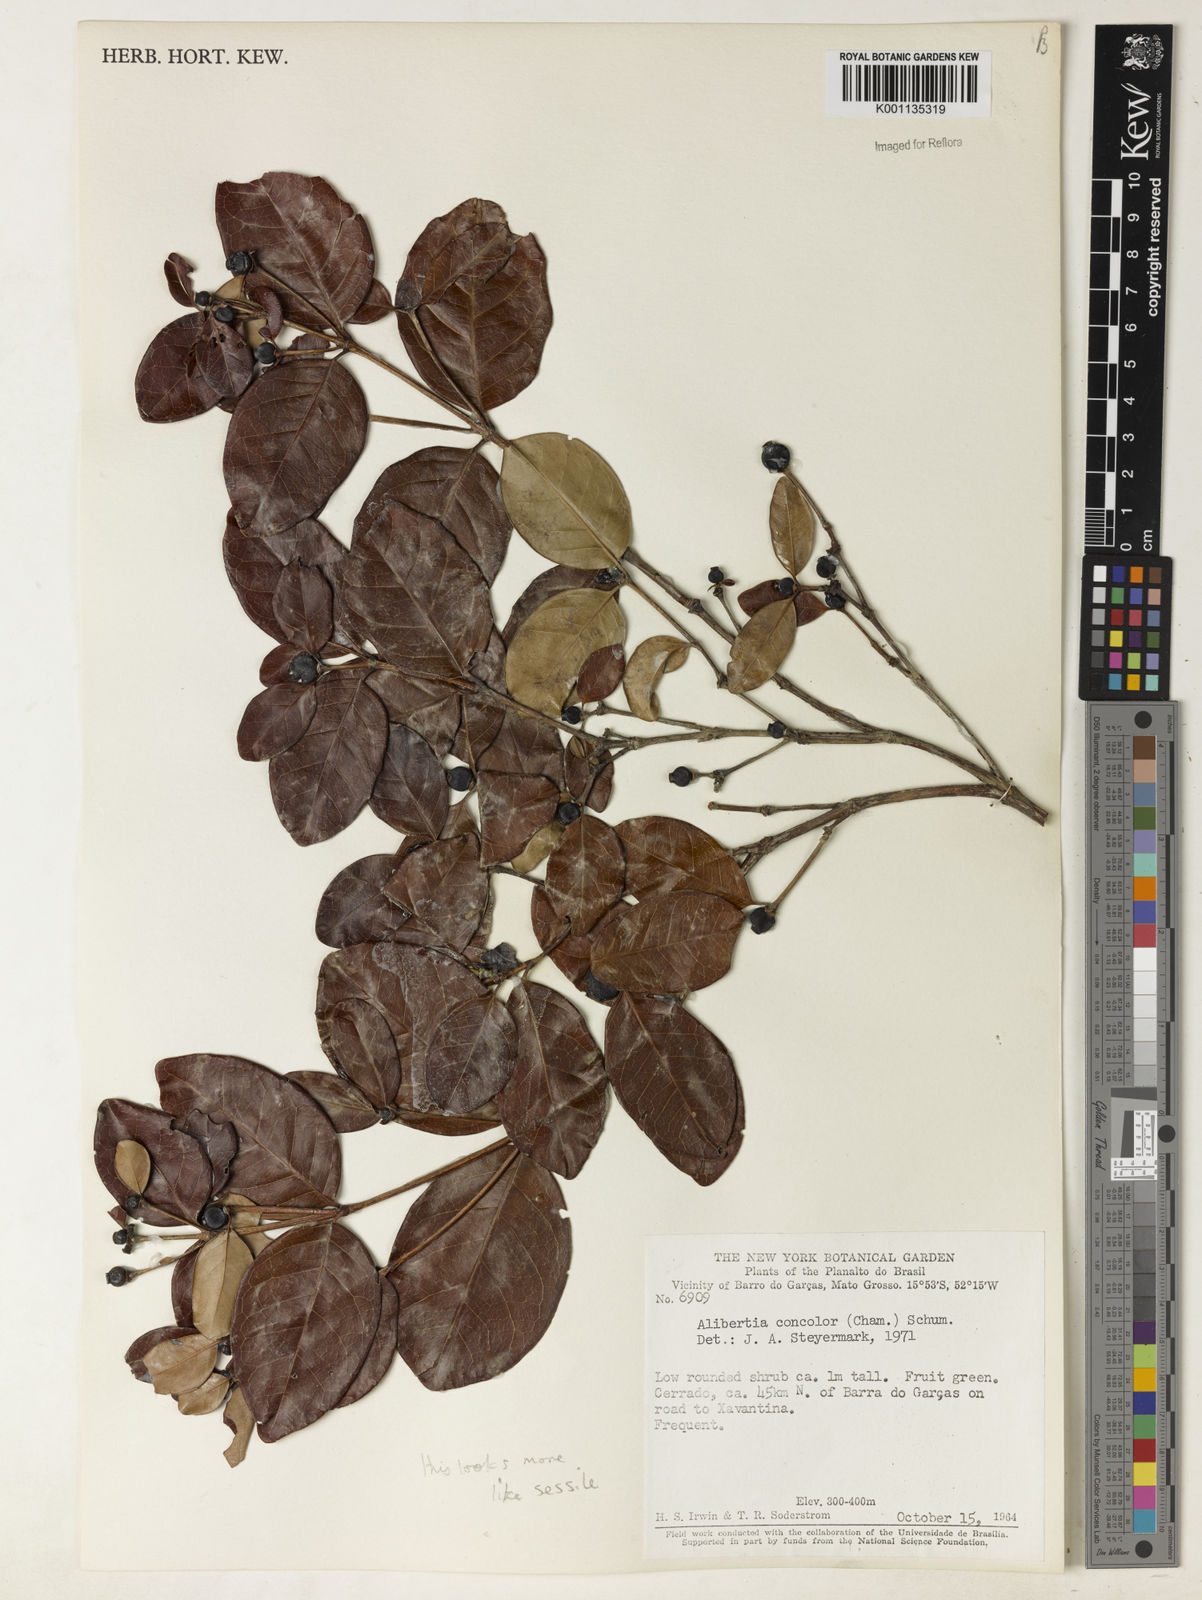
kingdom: Plantae
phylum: Tracheophyta
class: Magnoliopsida
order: Gentianales
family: Rubiaceae
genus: Cordiera
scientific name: Cordiera concolor
